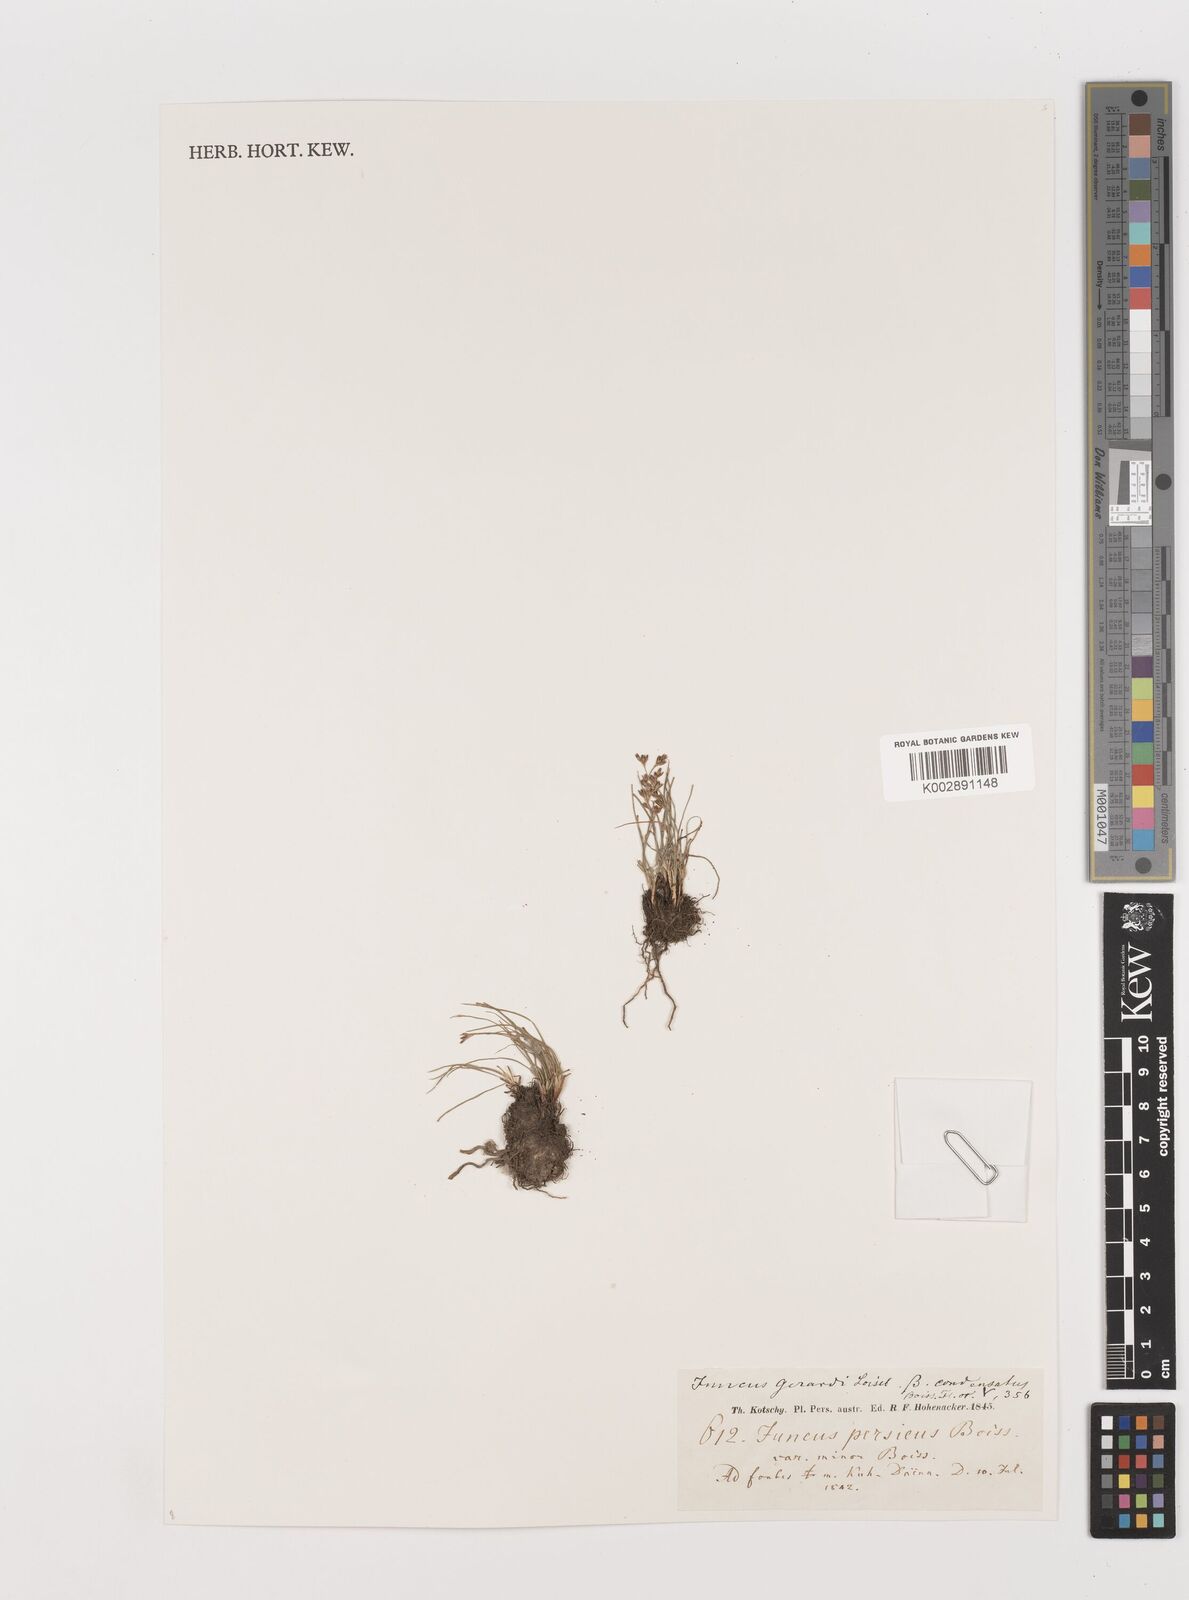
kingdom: Plantae
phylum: Tracheophyta
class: Liliopsida
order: Poales
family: Juncaceae
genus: Juncus
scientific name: Juncus gerardi
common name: Saltmarsh rush
